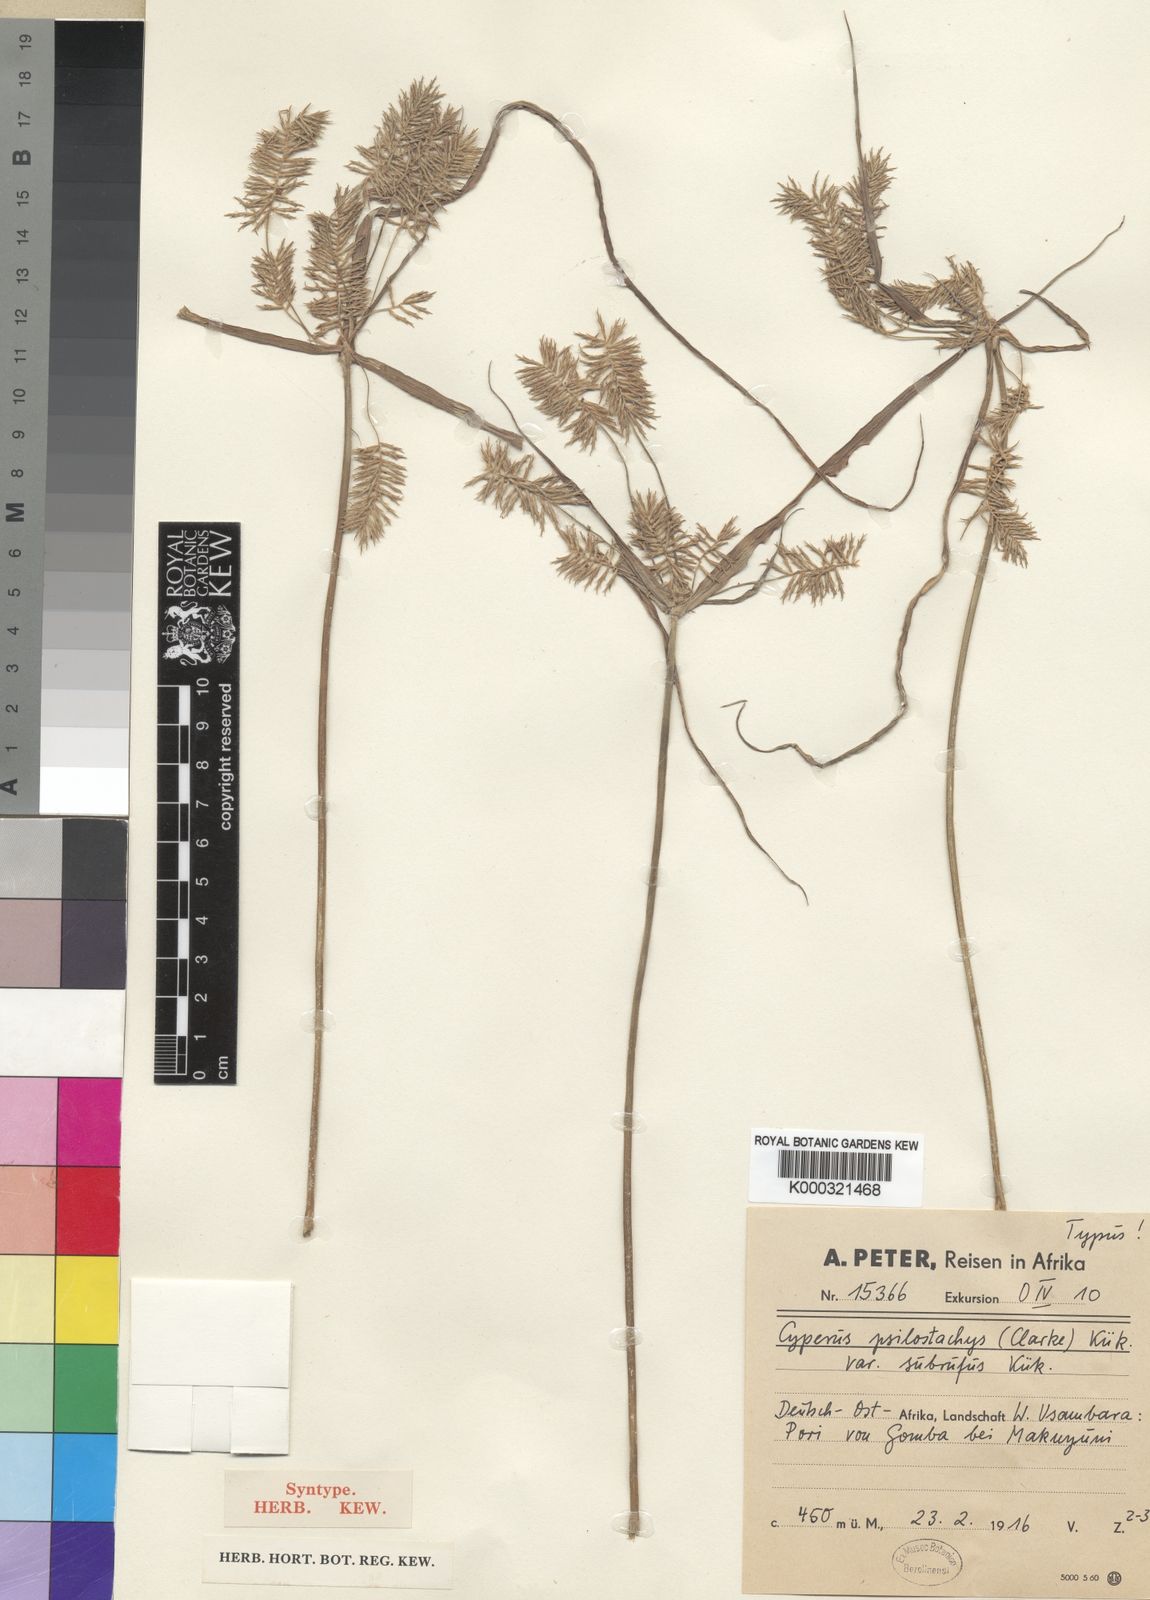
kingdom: Plantae
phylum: Tracheophyta
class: Liliopsida
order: Poales
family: Cyperaceae
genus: Cyperus
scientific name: Cyperus
